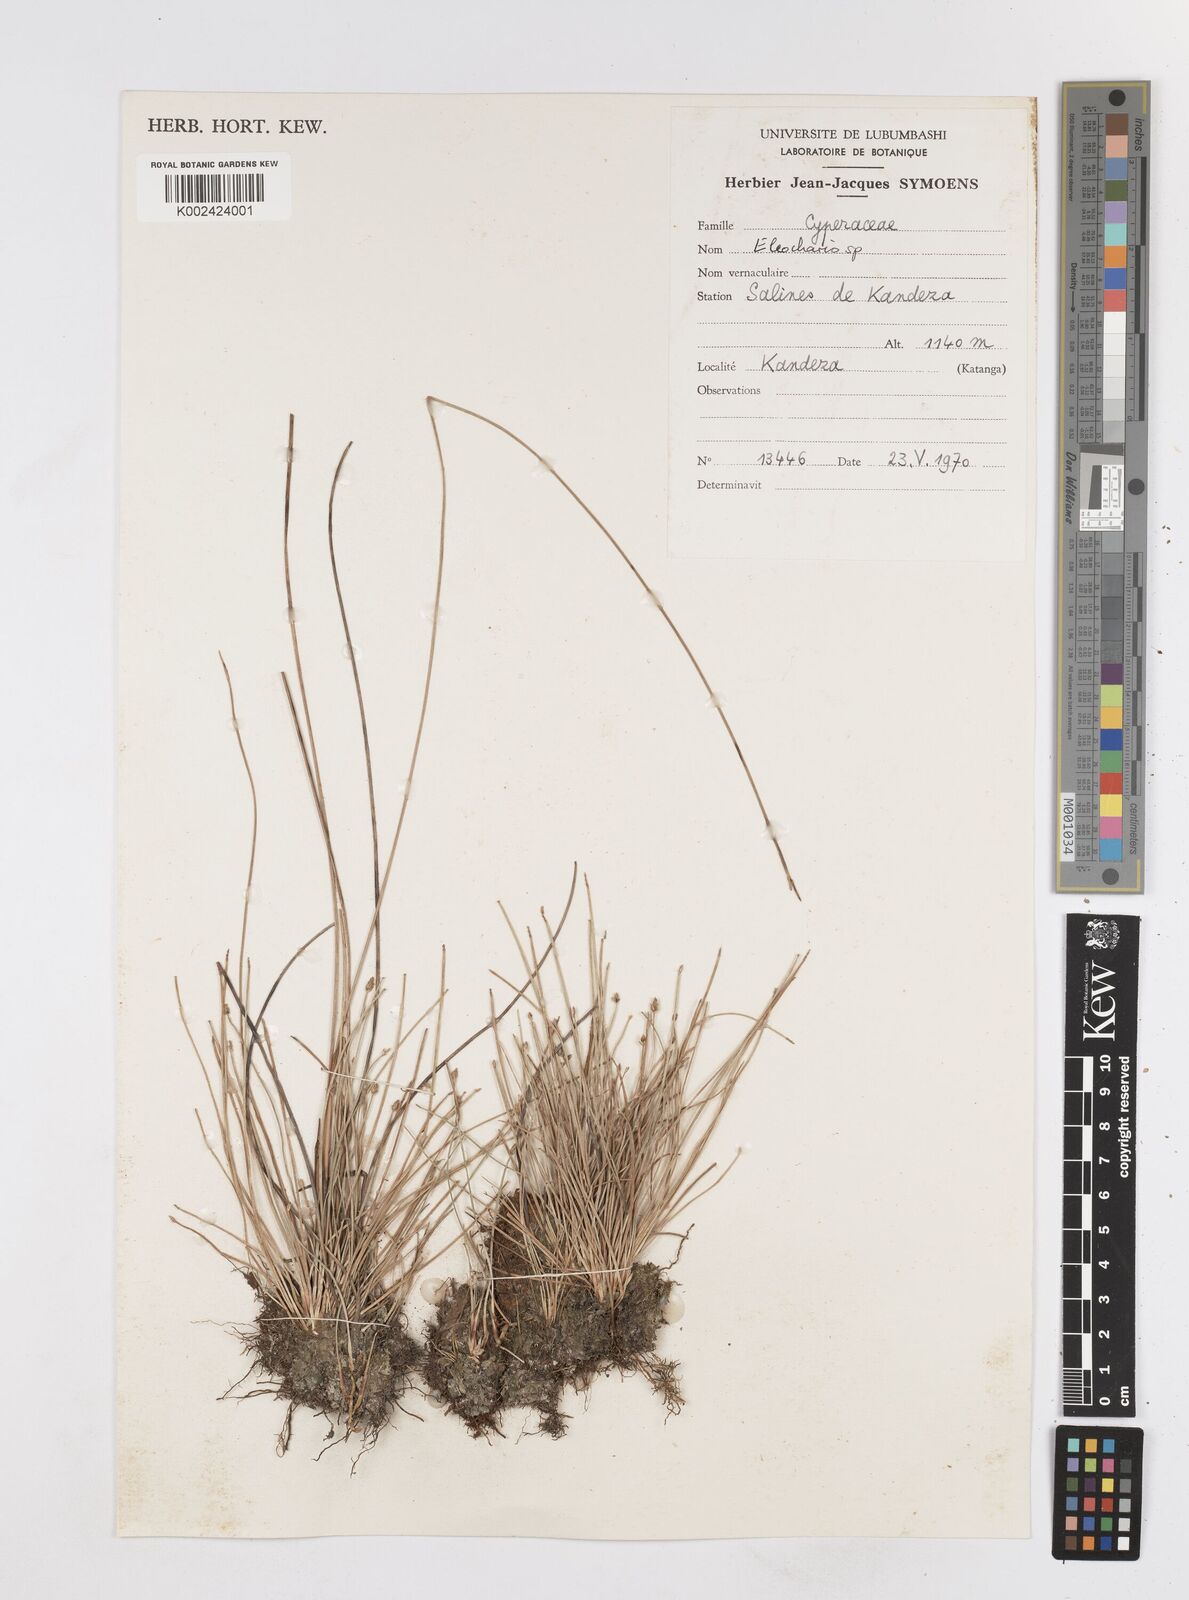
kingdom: Plantae
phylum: Tracheophyta
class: Liliopsida
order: Poales
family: Cyperaceae
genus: Eleocharis
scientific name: Eleocharis
